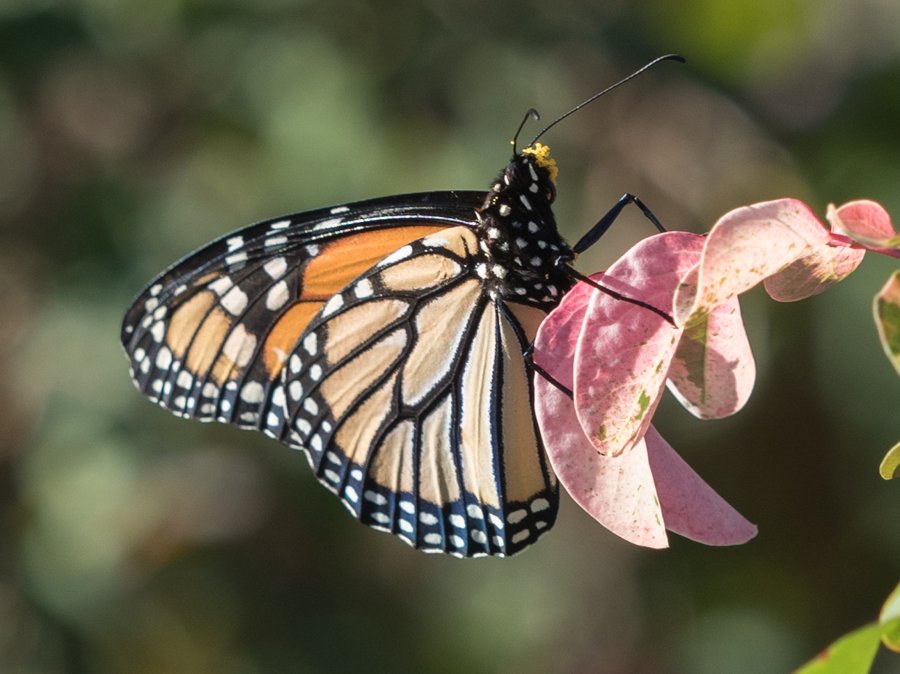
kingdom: Animalia
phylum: Arthropoda
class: Insecta
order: Lepidoptera
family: Nymphalidae
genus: Danaus
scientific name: Danaus plexippus
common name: Monarch
